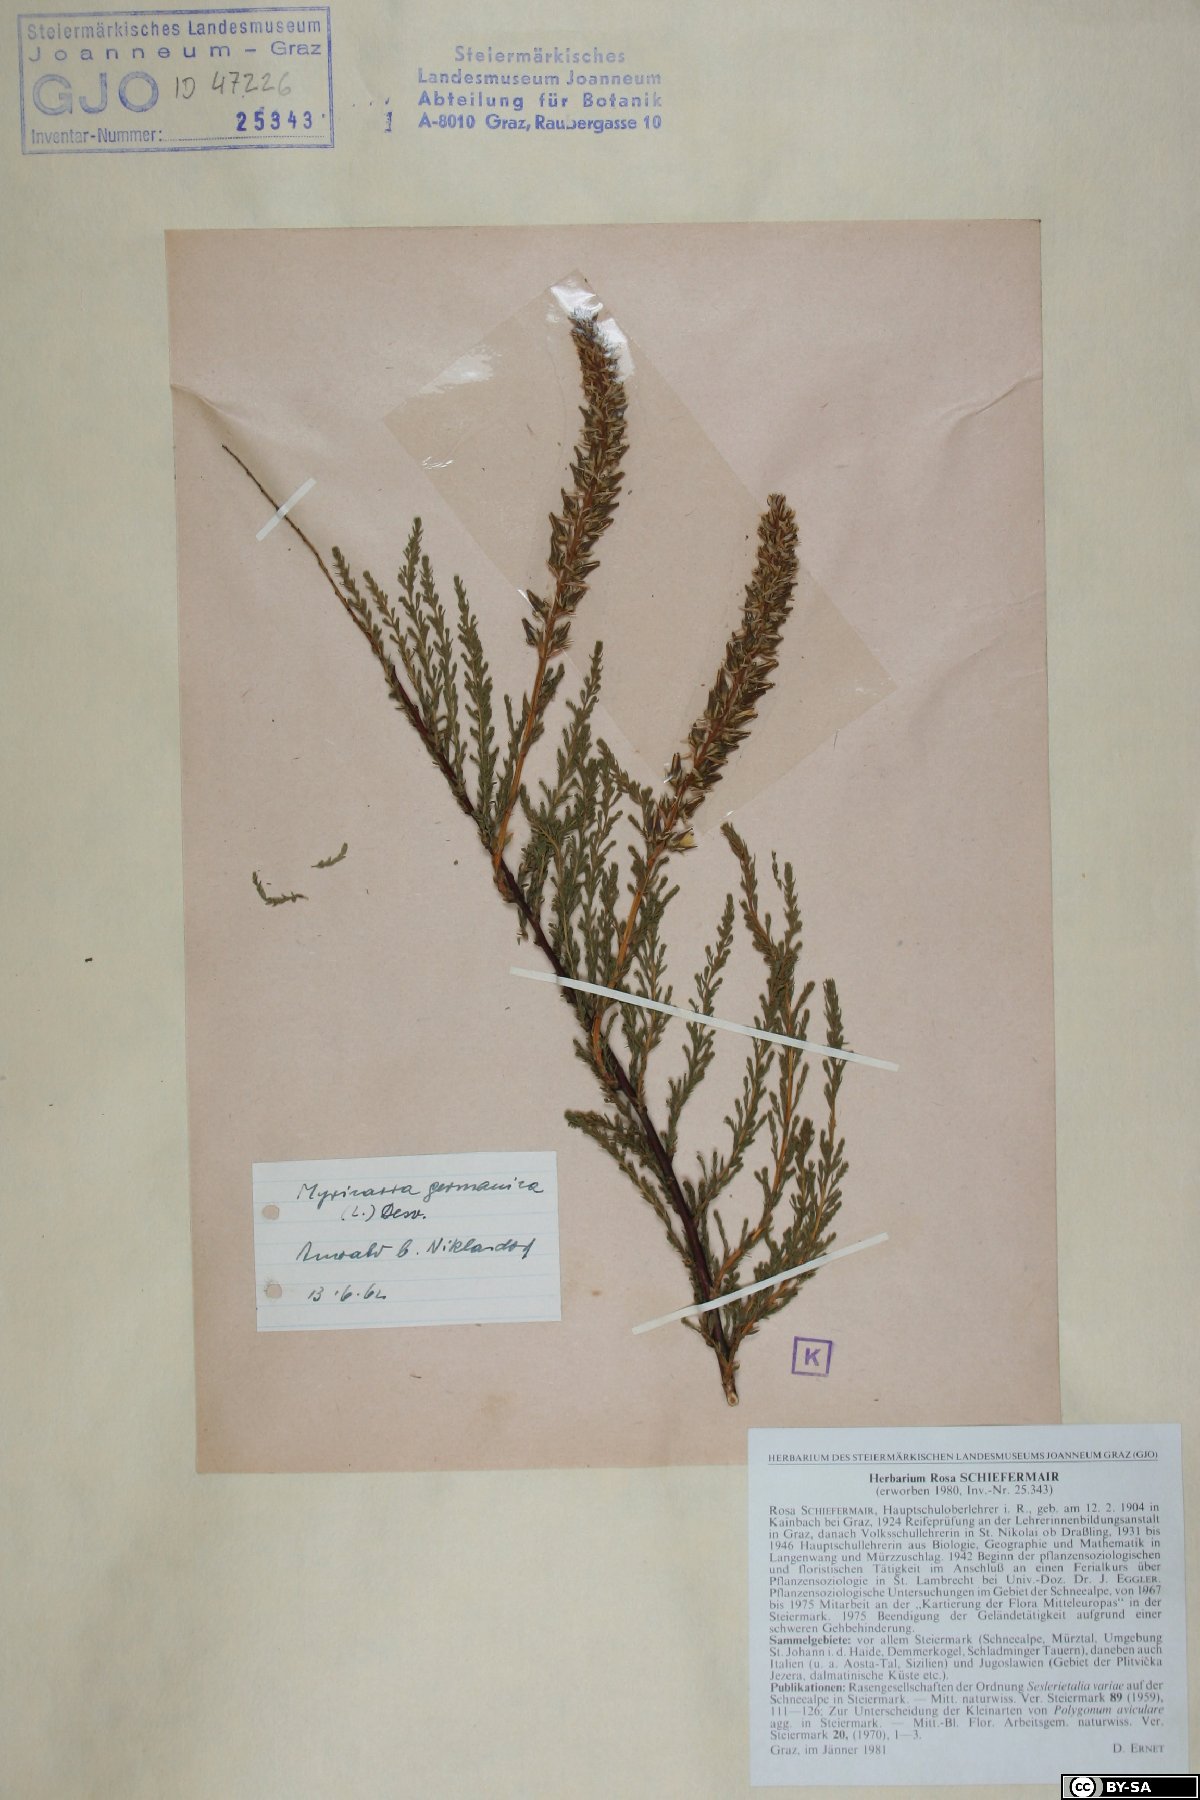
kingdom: Plantae
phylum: Tracheophyta
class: Magnoliopsida
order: Caryophyllales
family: Tamaricaceae
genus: Myricaria
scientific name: Myricaria germanica
